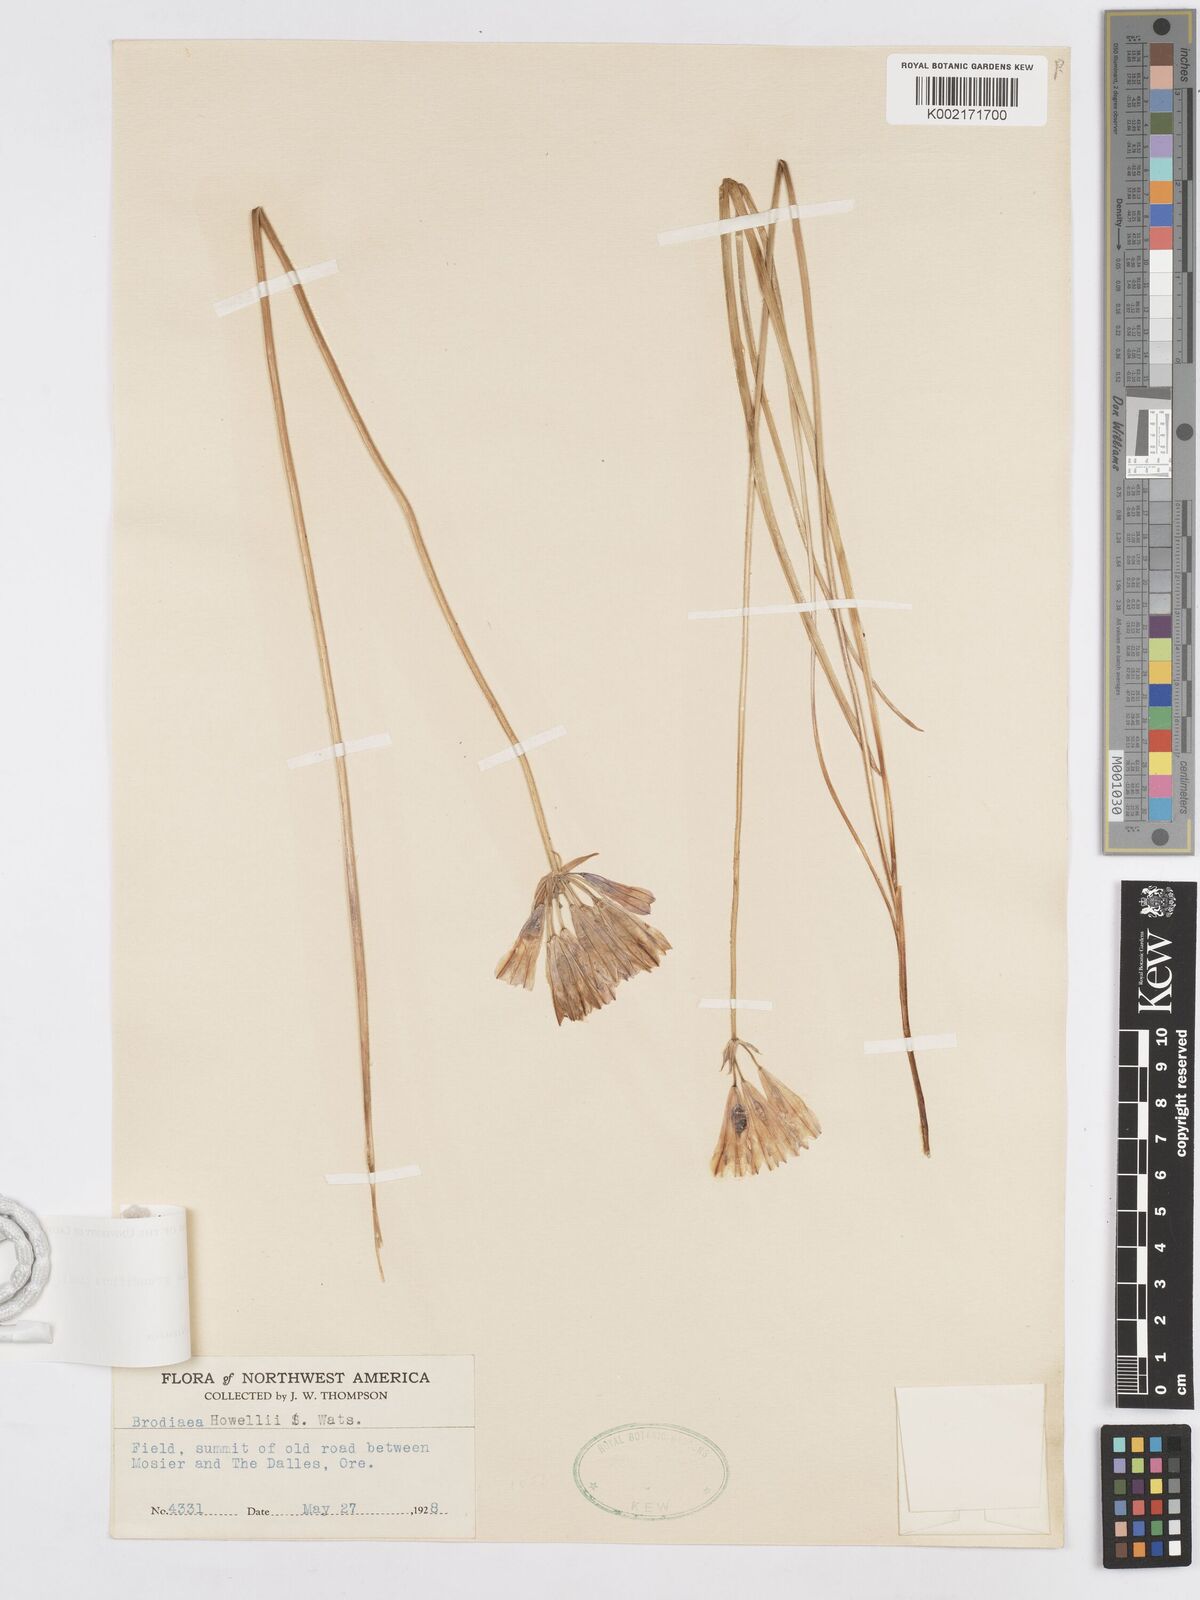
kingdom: Plantae
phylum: Tracheophyta
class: Liliopsida
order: Asparagales
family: Asparagaceae
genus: Triteleia
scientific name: Triteleia grandiflora
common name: Wild hyacinth
